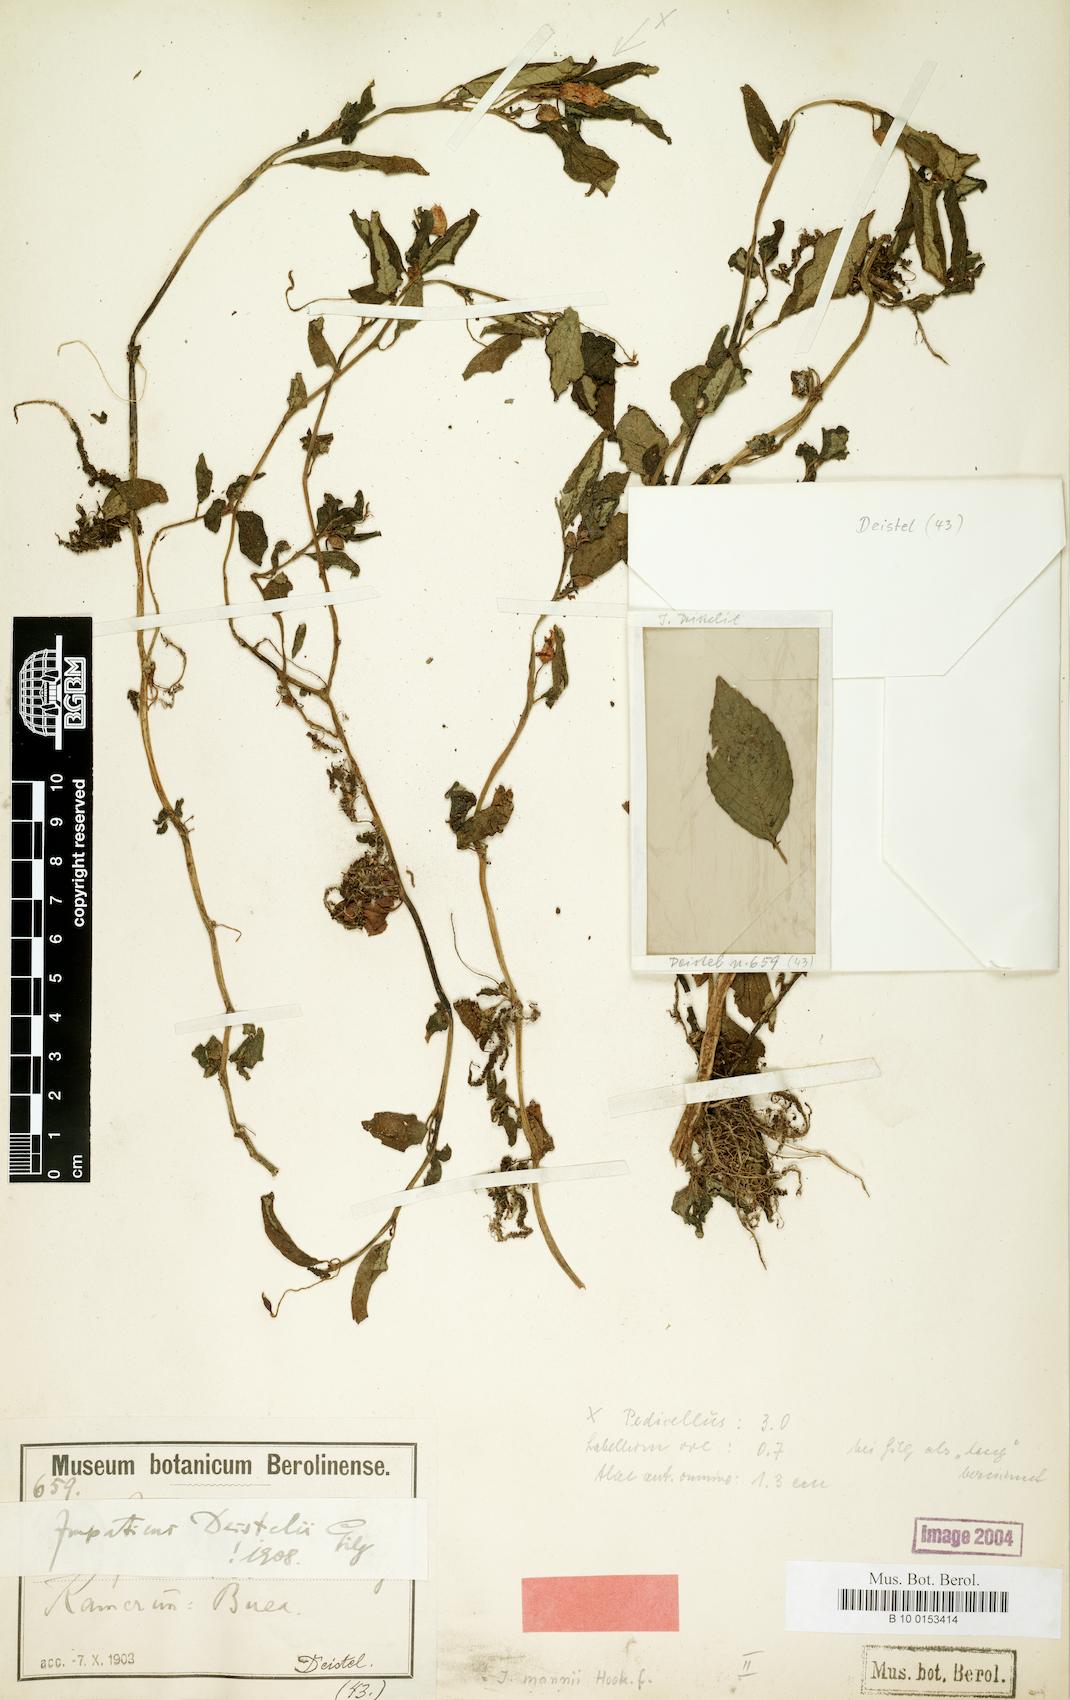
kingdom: Plantae
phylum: Tracheophyta
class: Magnoliopsida
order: Ericales
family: Balsaminaceae
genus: Impatiens
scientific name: Impatiens mannii
